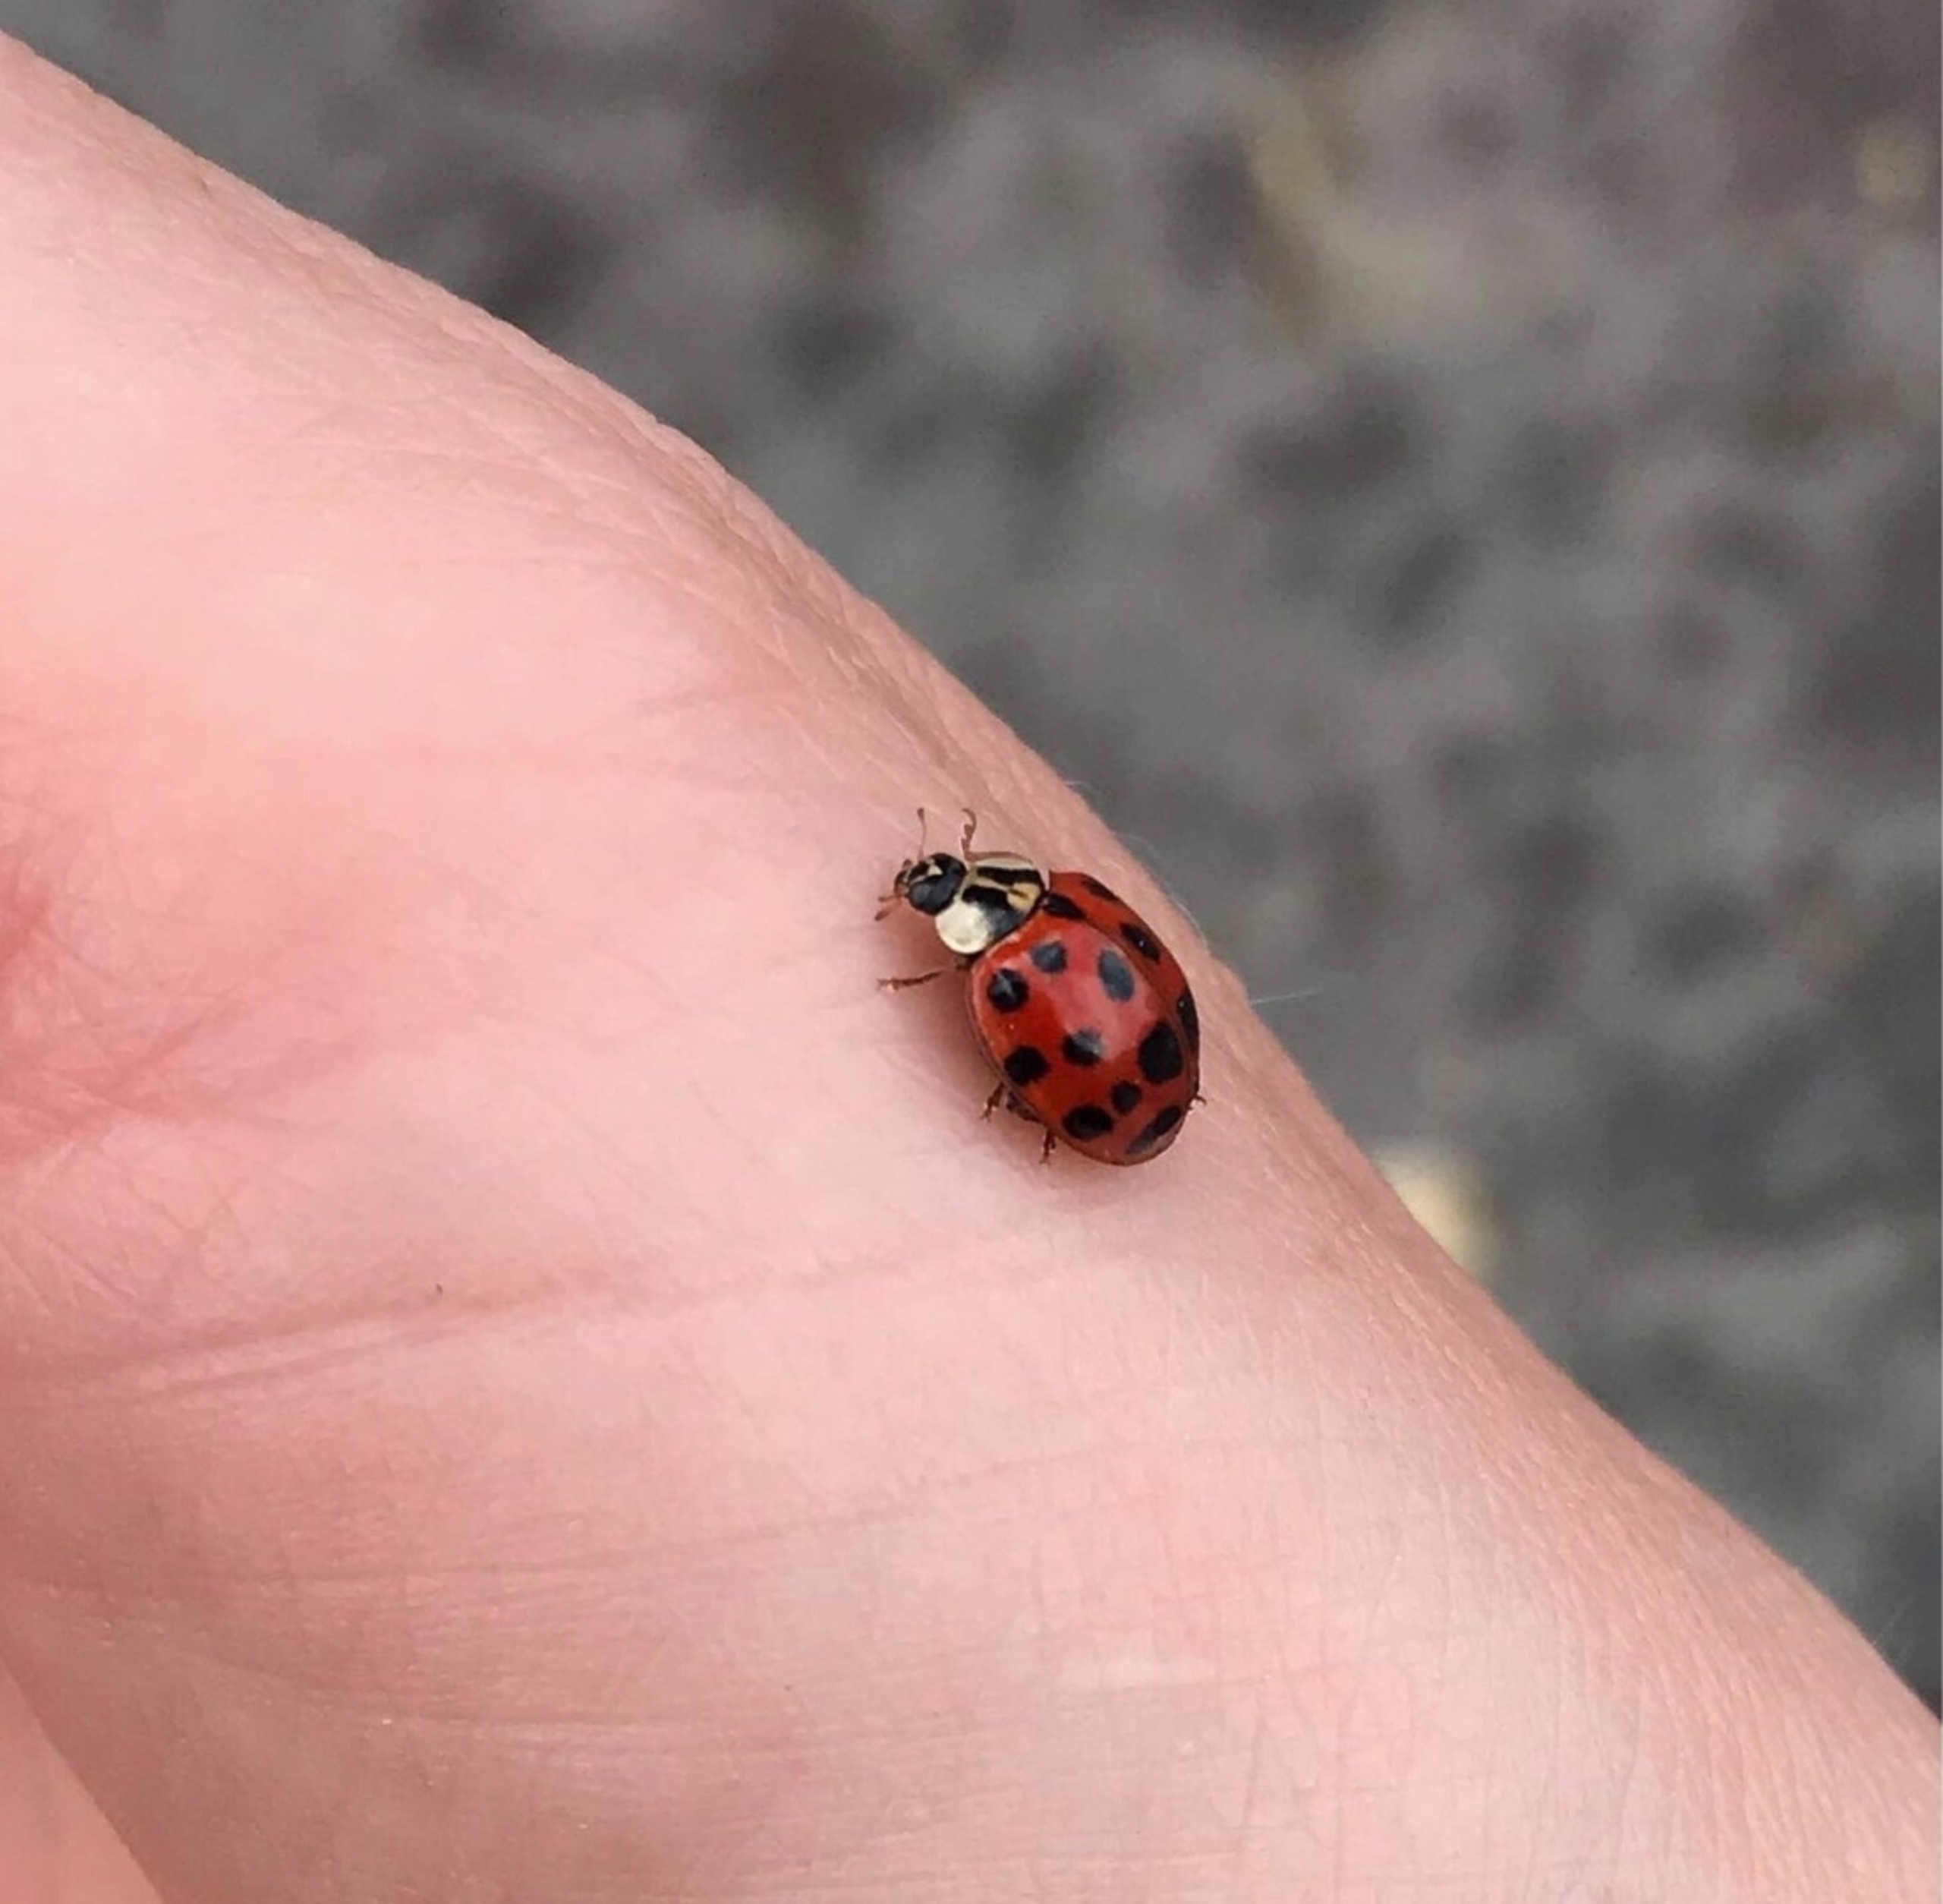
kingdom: Animalia
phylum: Arthropoda
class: Insecta
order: Coleoptera
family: Coccinellidae
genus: Harmonia
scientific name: Harmonia axyridis
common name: Harlekinmariehøne
